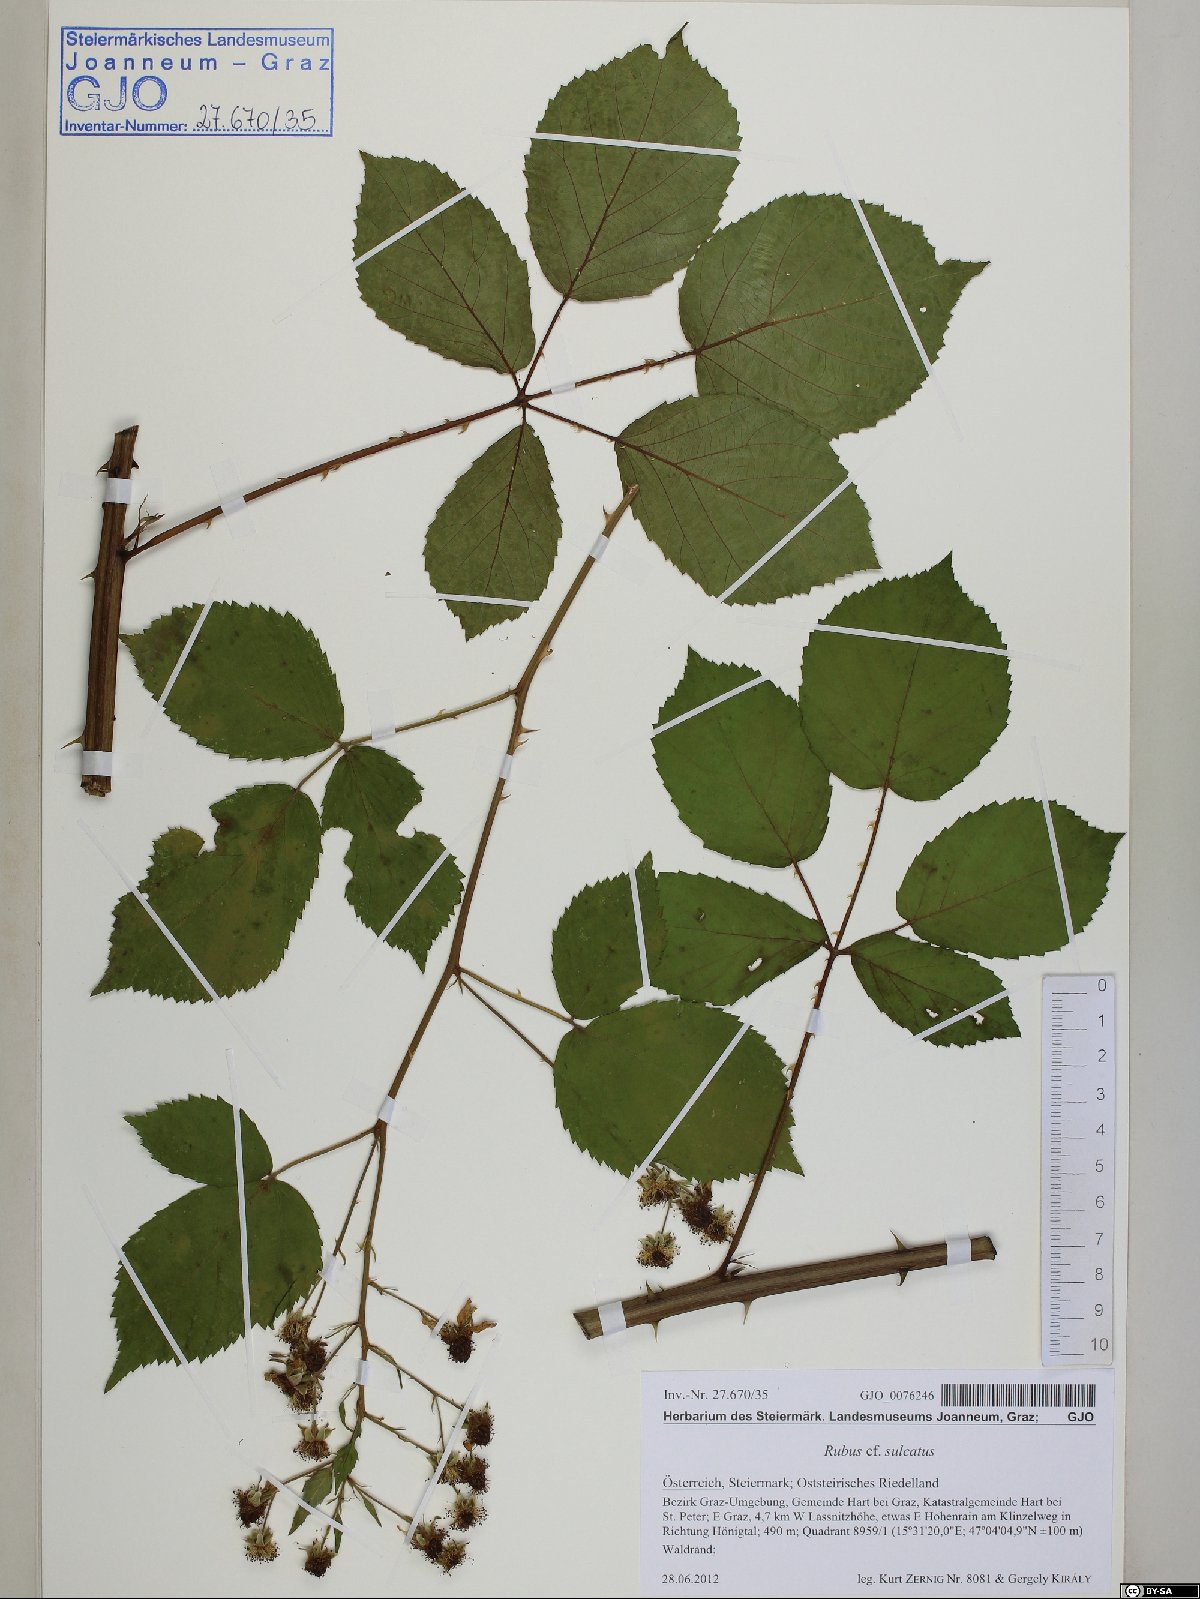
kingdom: Plantae
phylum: Tracheophyta
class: Magnoliopsida
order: Rosales
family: Rosaceae
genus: Rubus
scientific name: Rubus sulcatus
